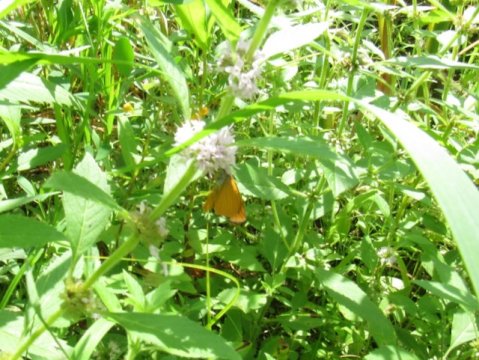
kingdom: Animalia
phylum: Arthropoda
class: Insecta
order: Lepidoptera
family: Hesperiidae
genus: Ancyloxypha
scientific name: Ancyloxypha numitor
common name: Least Skipper
